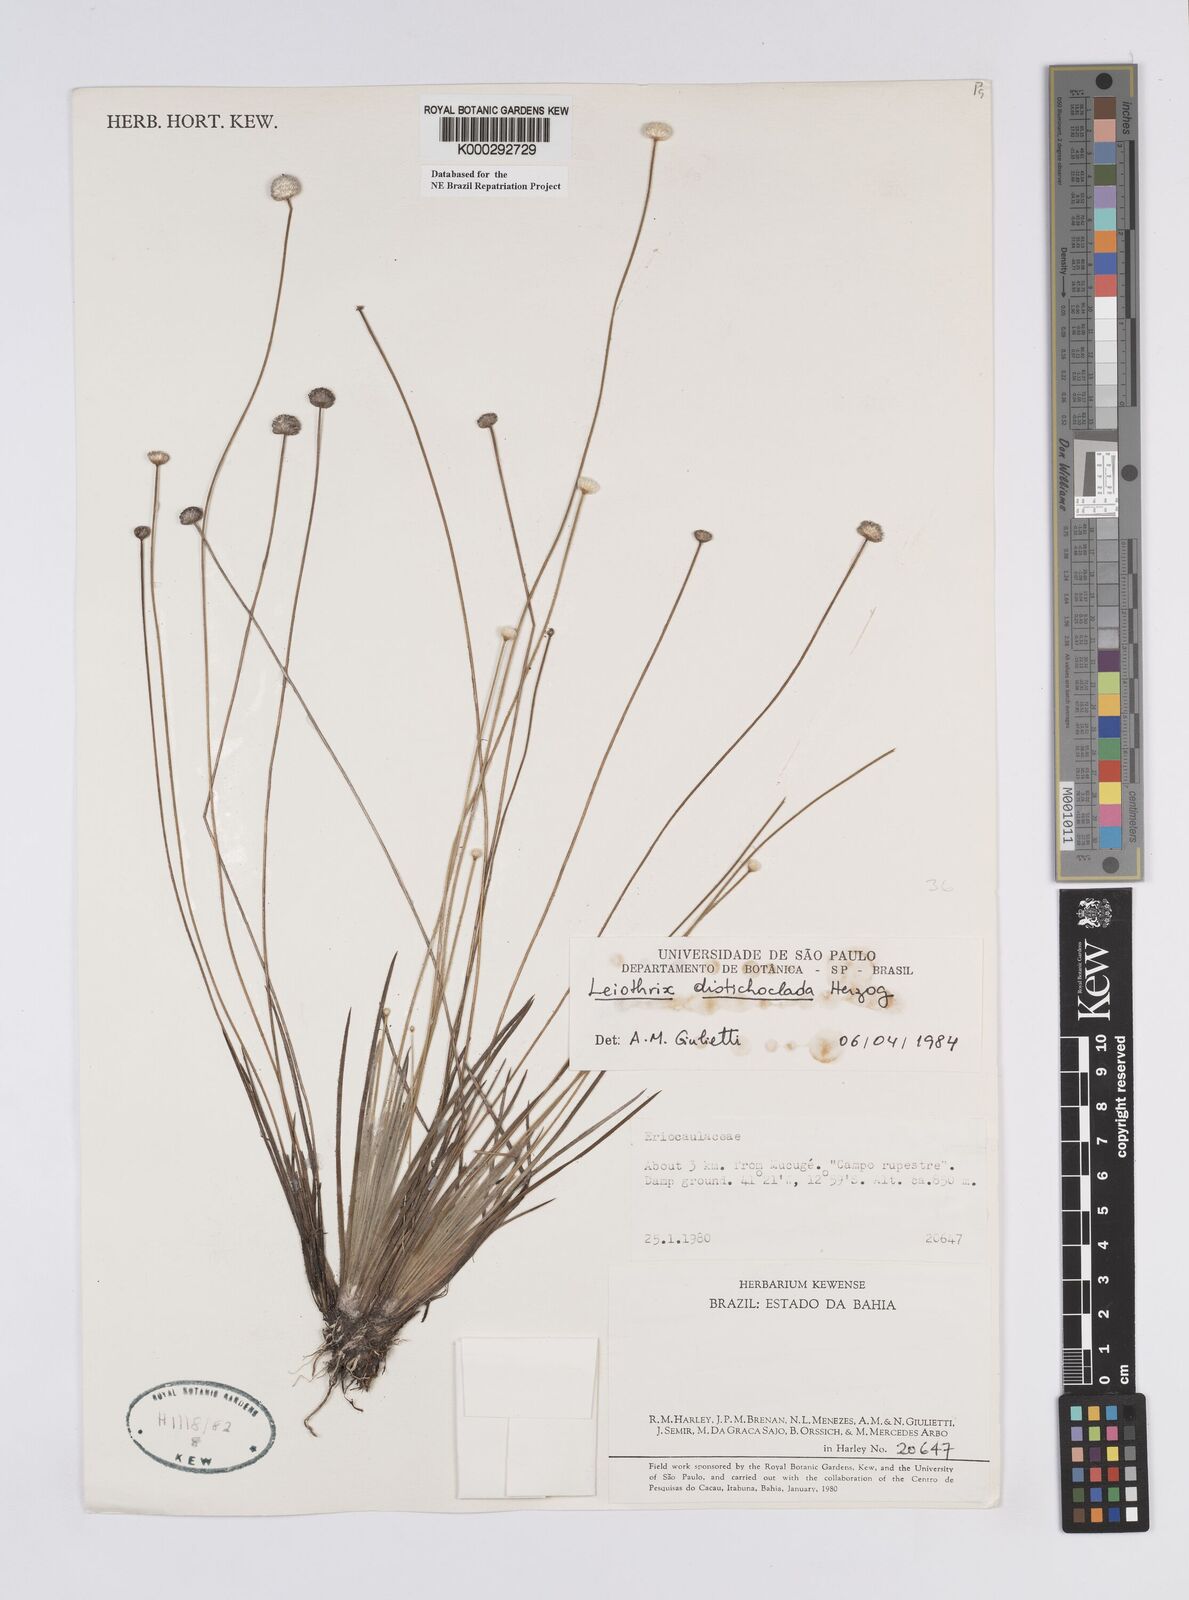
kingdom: Plantae
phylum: Tracheophyta
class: Liliopsida
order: Poales
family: Eriocaulaceae
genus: Leiothrix
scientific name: Leiothrix distichoclada
